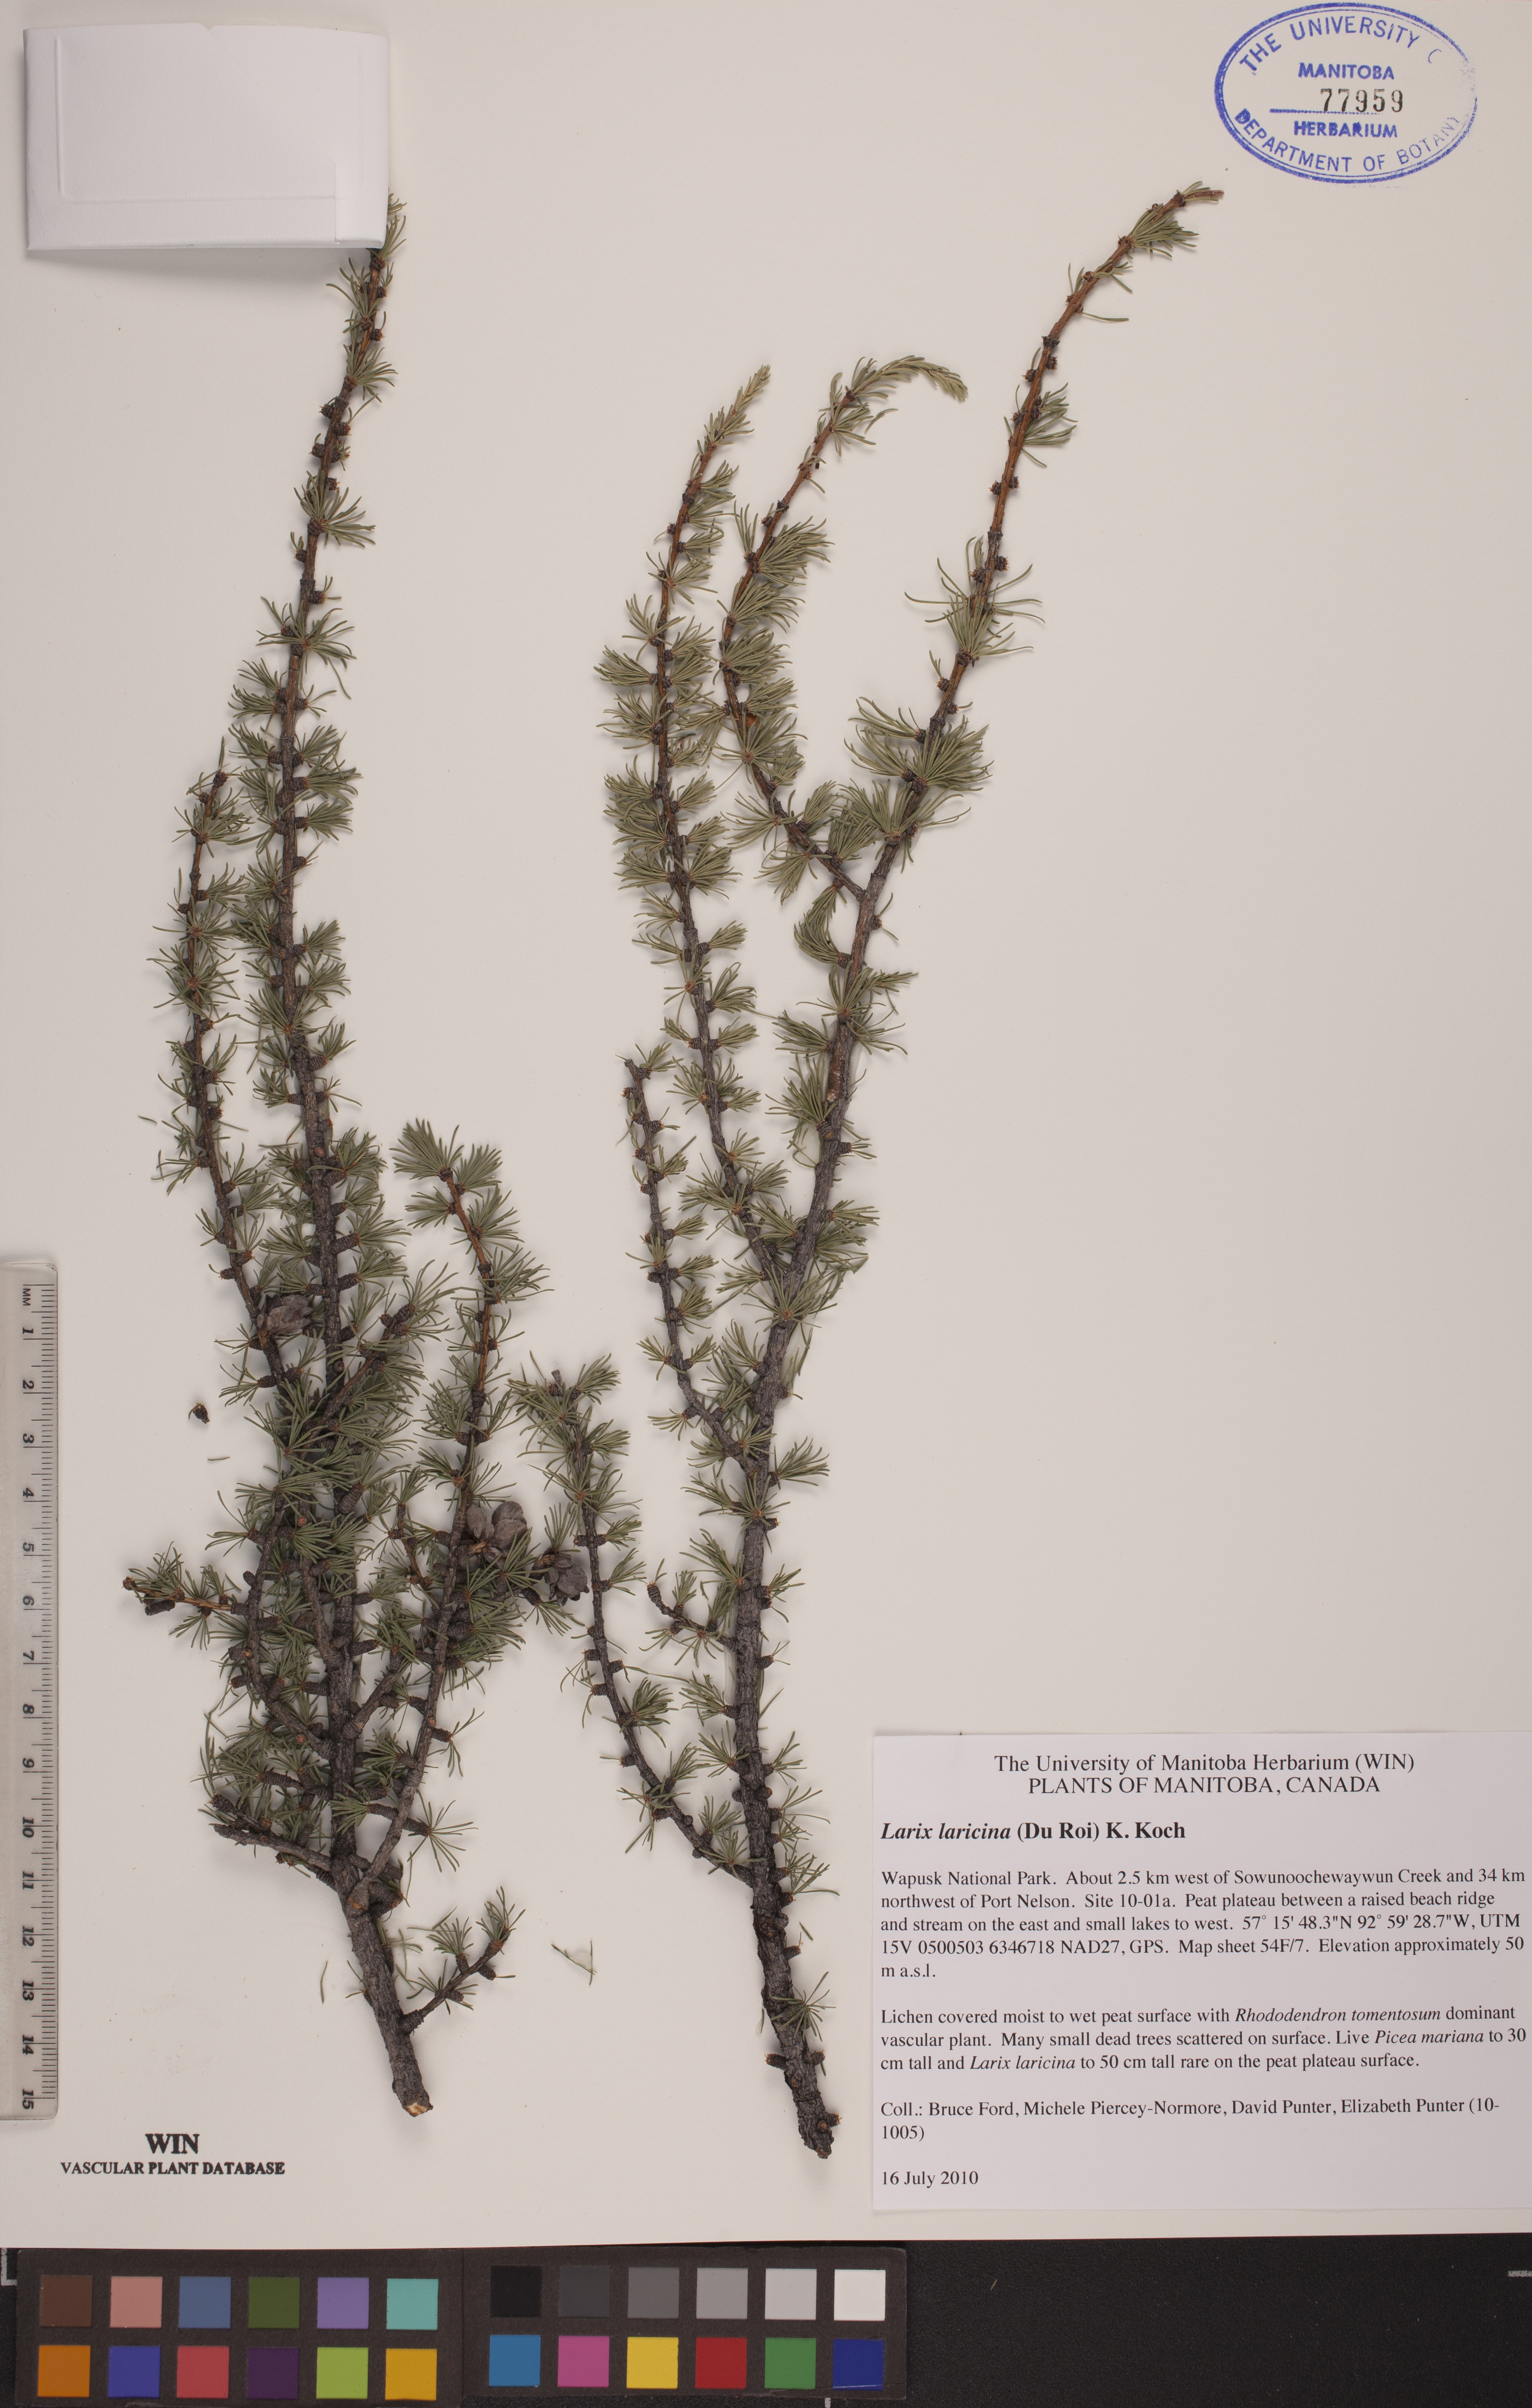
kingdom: Plantae
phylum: Tracheophyta
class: Pinopsida
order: Pinales
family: Pinaceae
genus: Larix
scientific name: Larix laricina
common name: American larch
